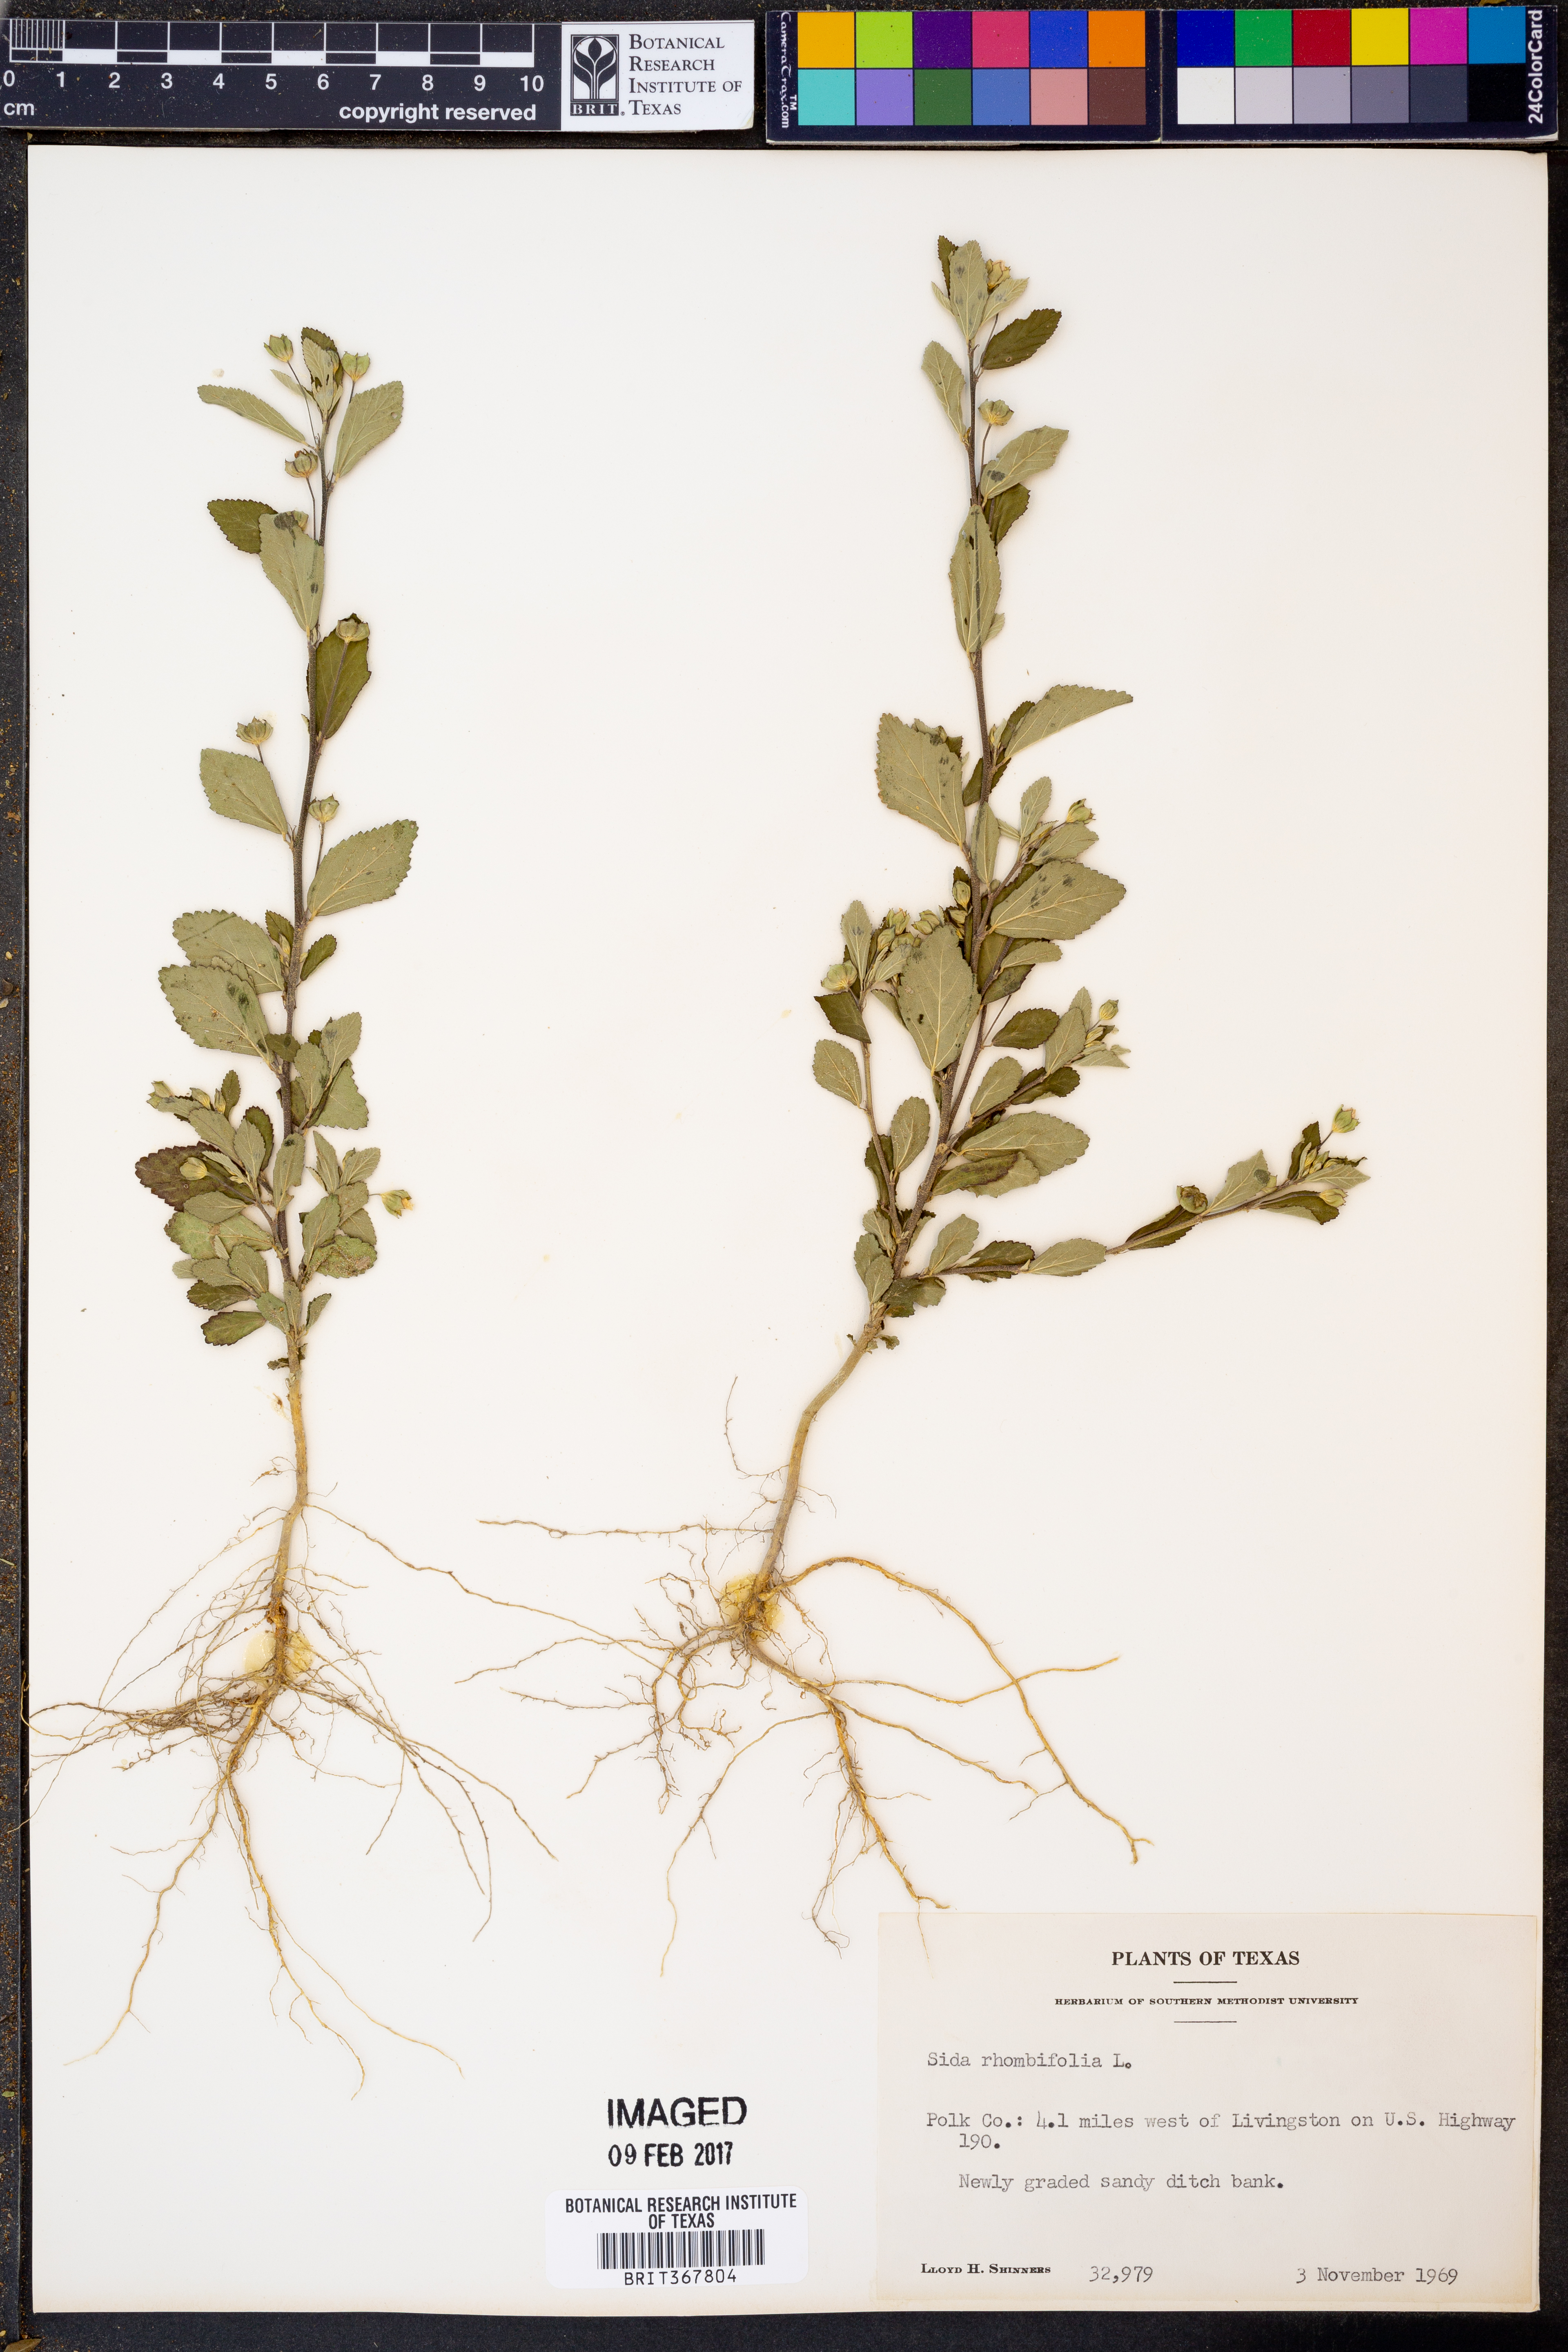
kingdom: Plantae
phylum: Tracheophyta
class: Magnoliopsida
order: Malvales
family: Malvaceae
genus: Sida
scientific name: Sida rhombifolia
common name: Queensland-hemp
